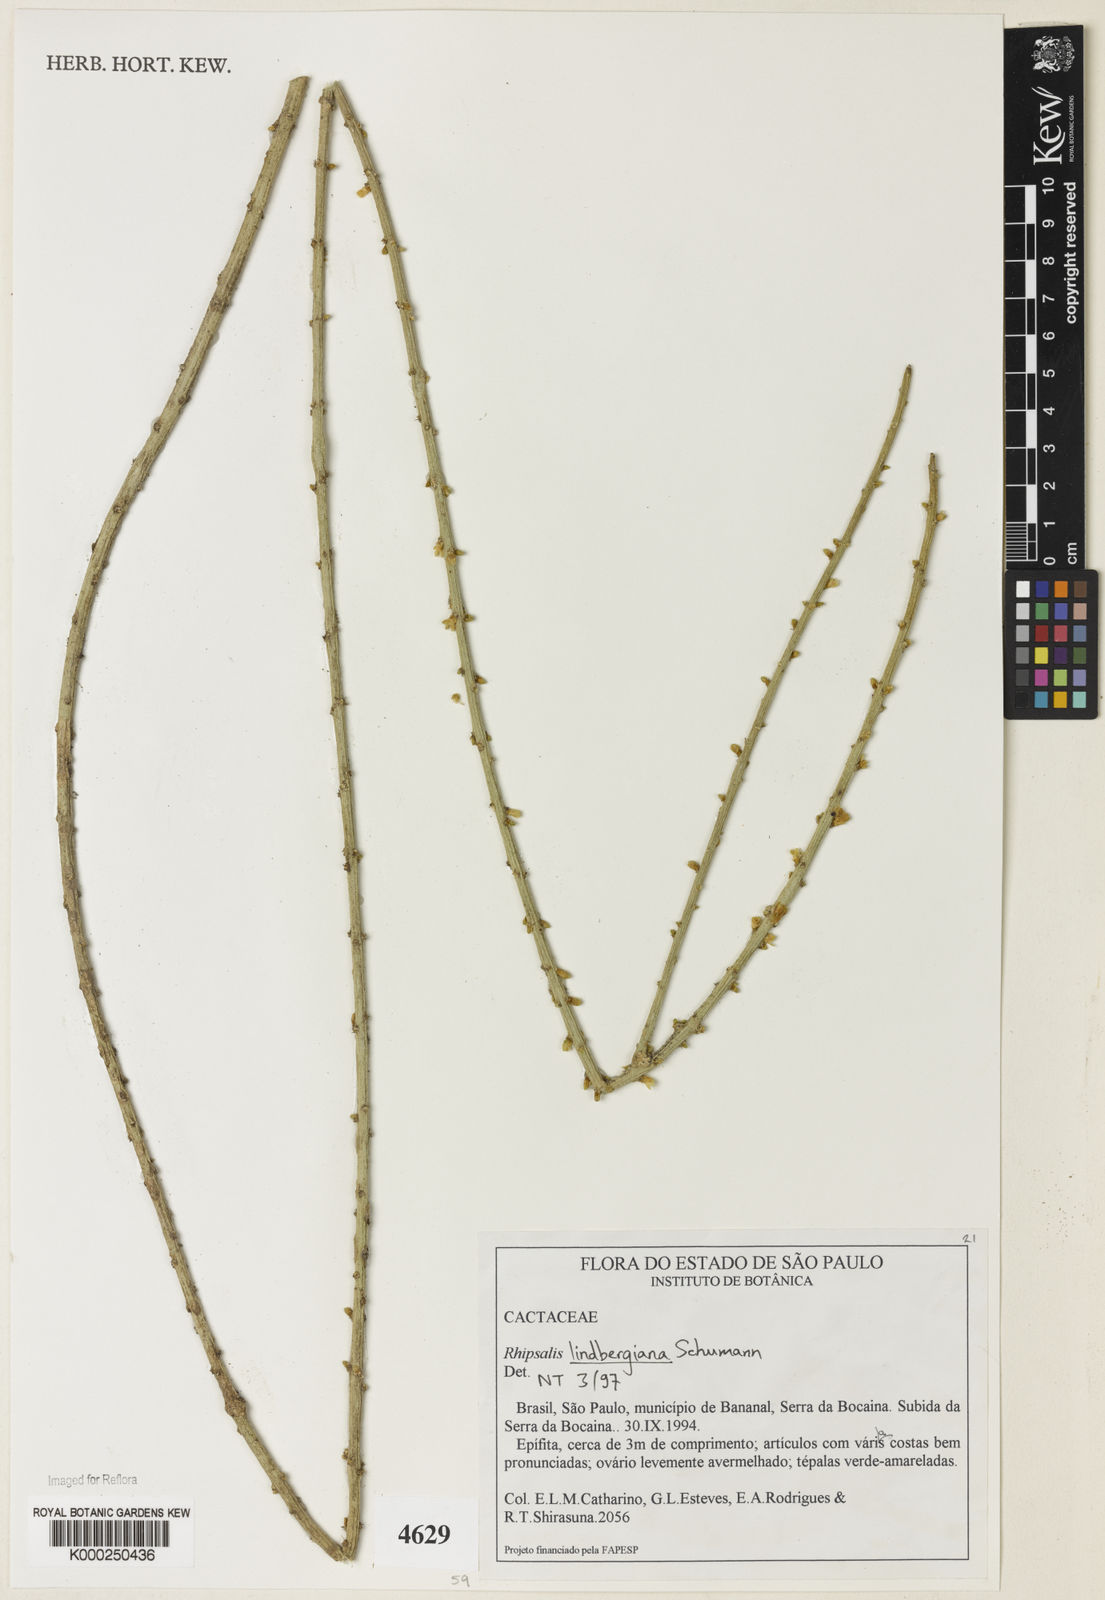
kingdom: Plantae
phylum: Tracheophyta
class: Magnoliopsida
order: Caryophyllales
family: Cactaceae
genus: Rhipsalis
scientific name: Rhipsalis lindbergiana
